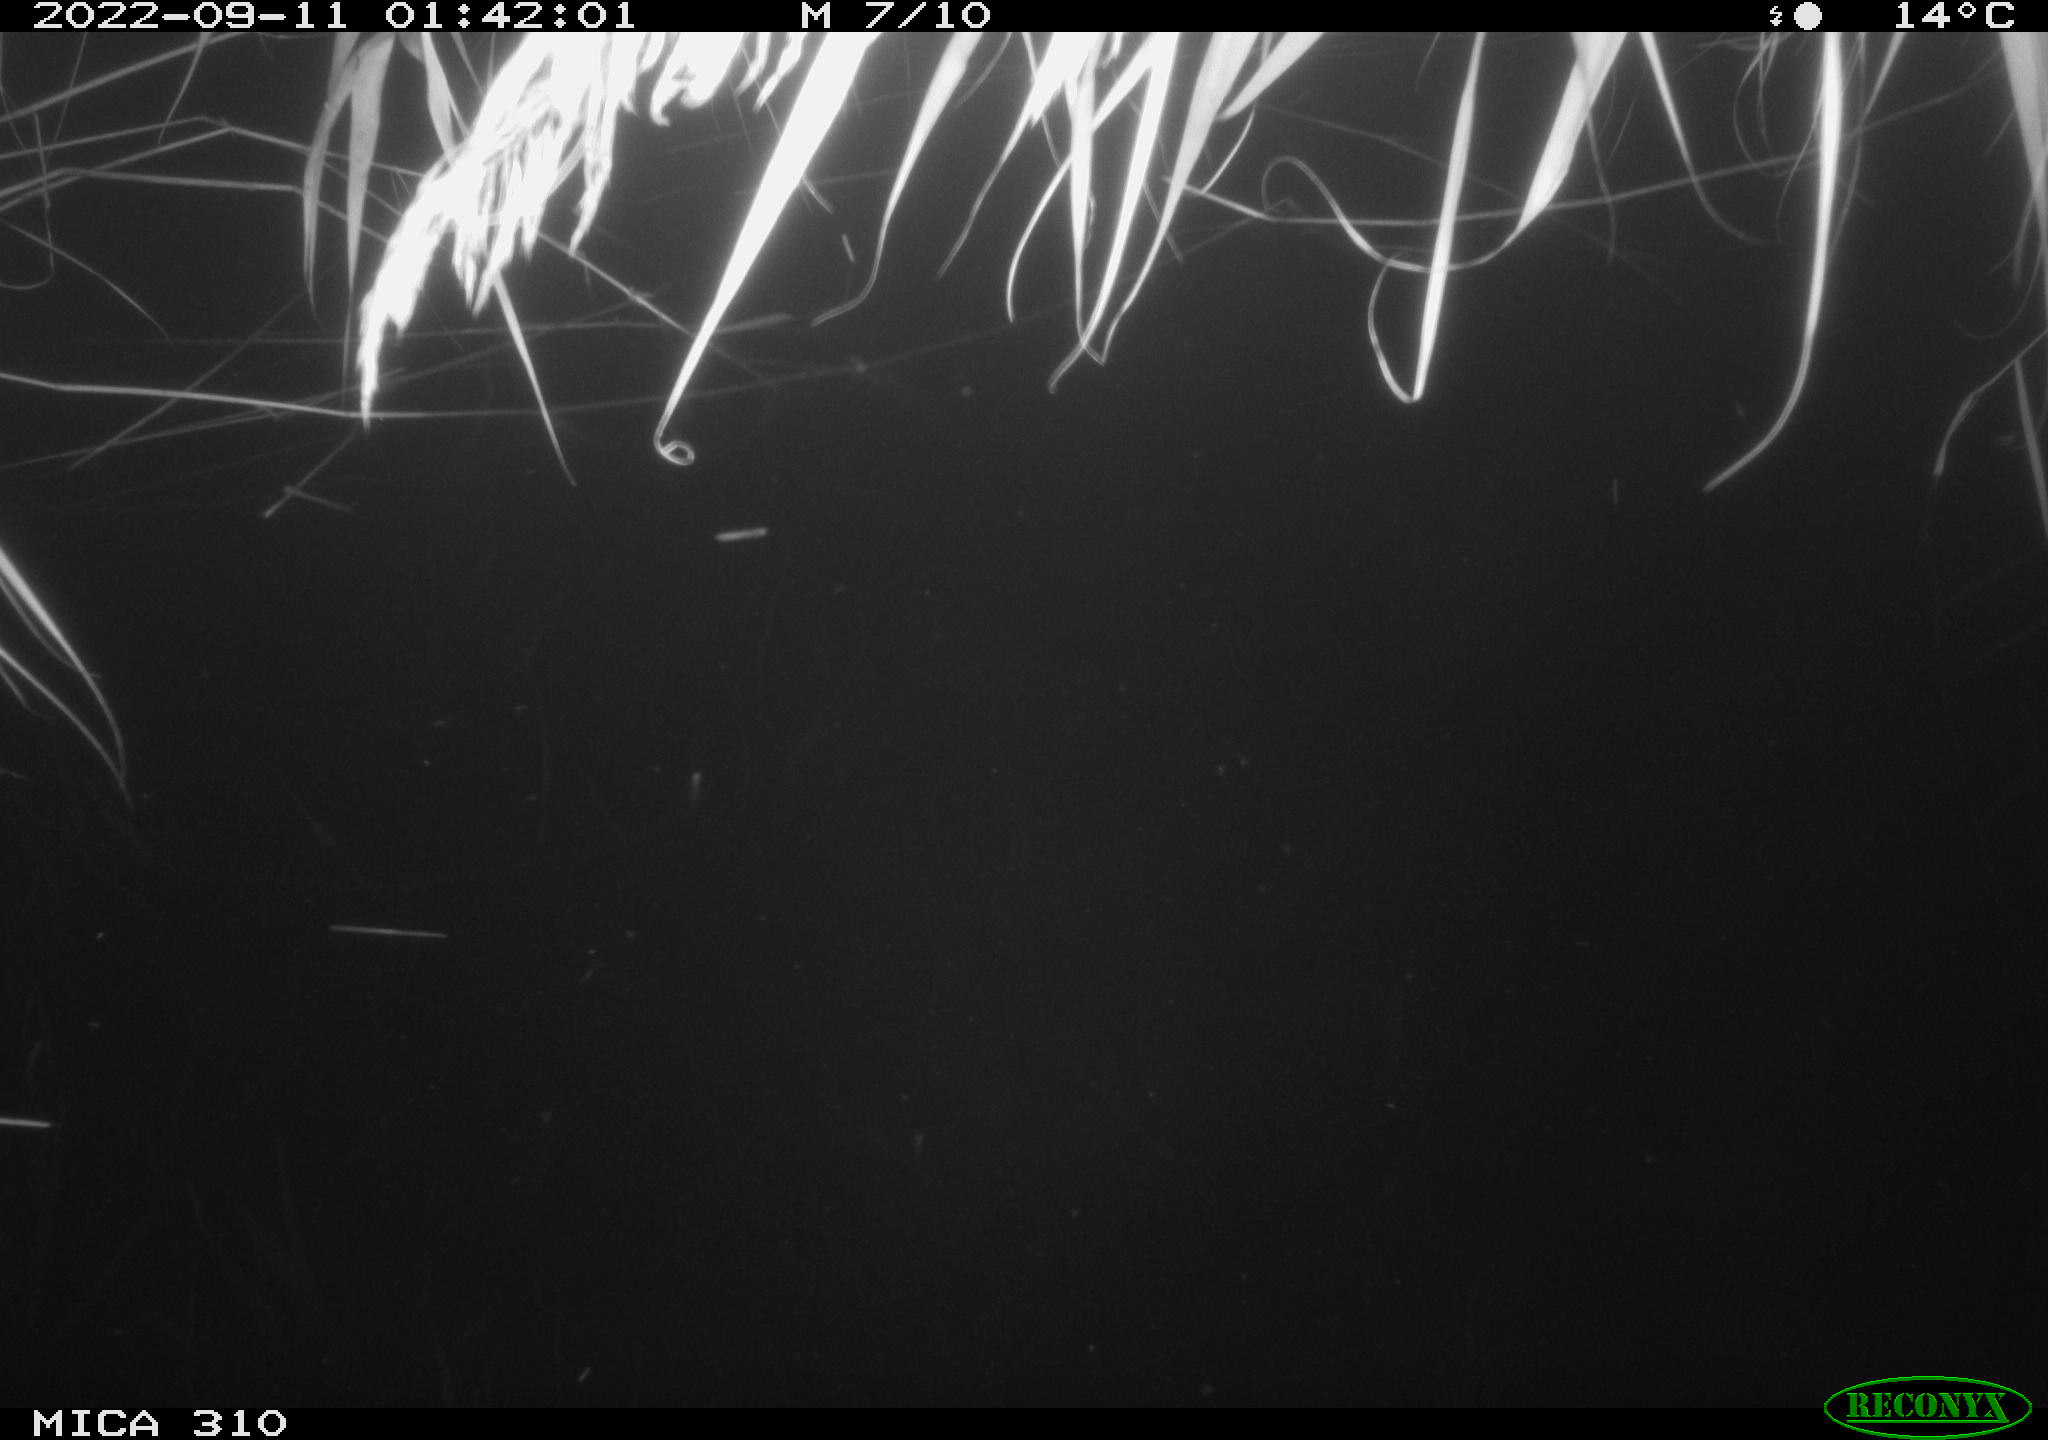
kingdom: Animalia
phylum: Chordata
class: Aves
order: Anseriformes
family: Anatidae
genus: Anas
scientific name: Anas platyrhynchos
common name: Mallard
